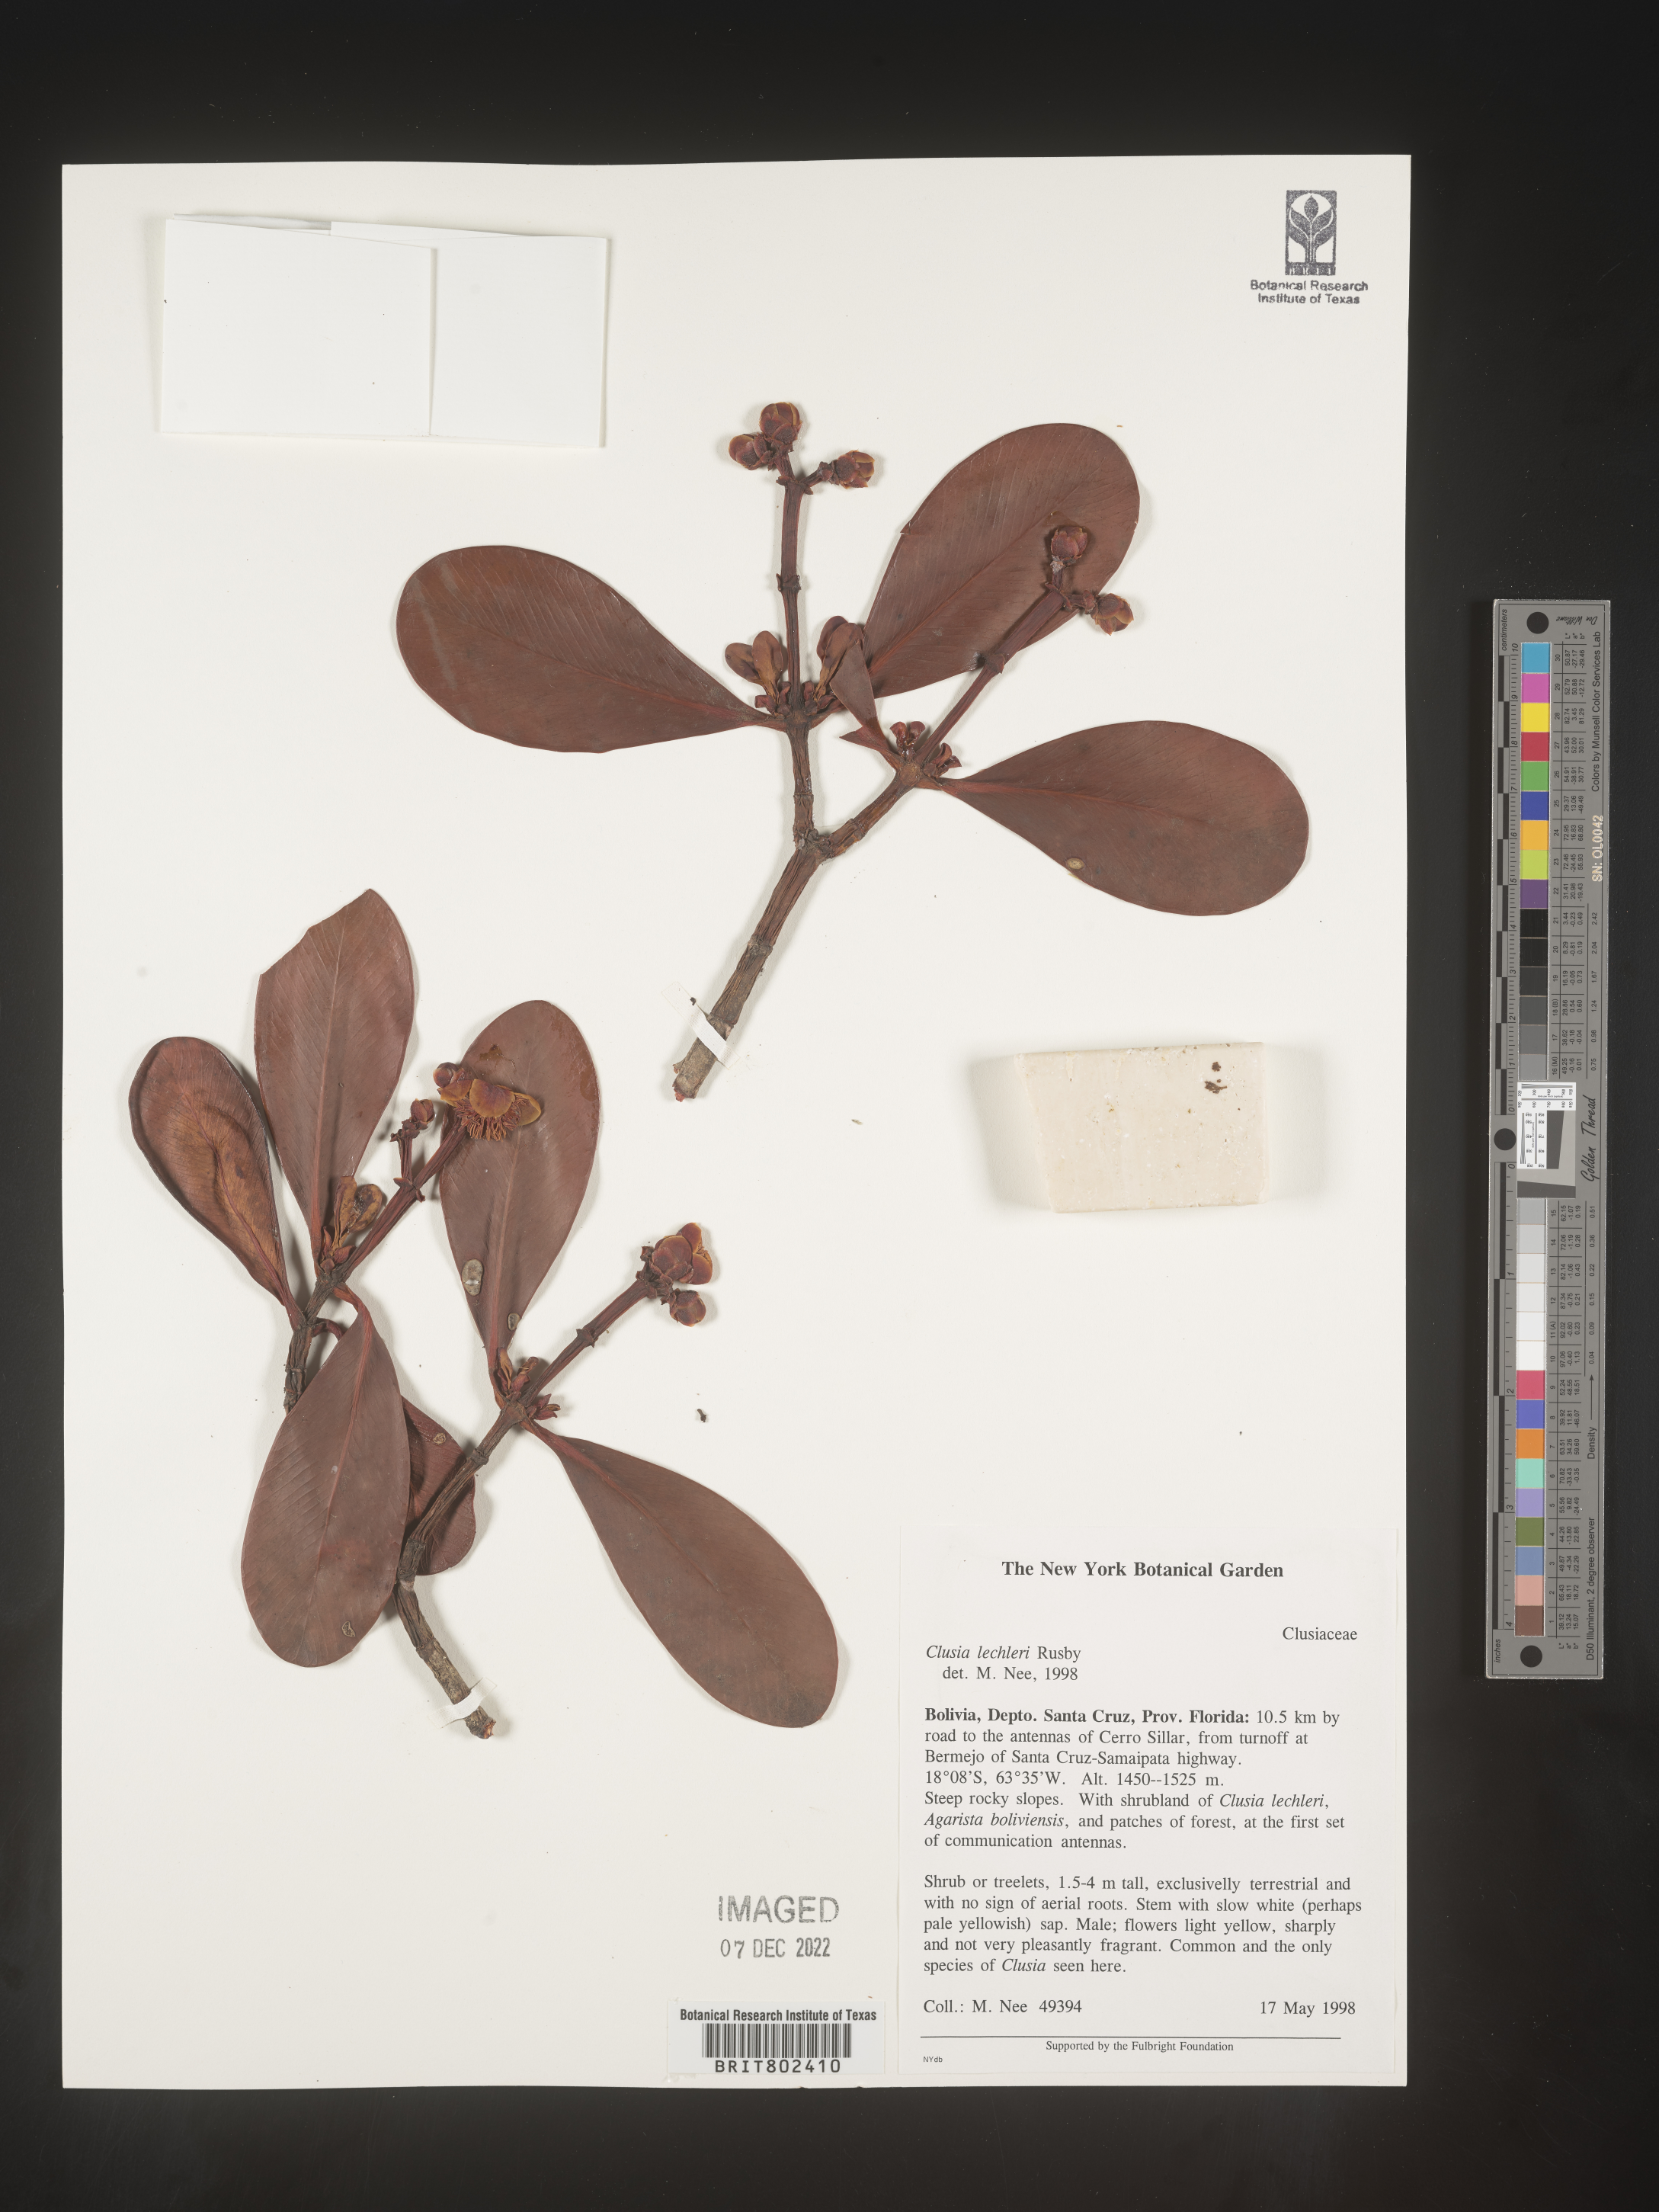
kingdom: Plantae
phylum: Tracheophyta
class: Magnoliopsida
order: Malpighiales
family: Clusiaceae
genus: Clusia
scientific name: Clusia
